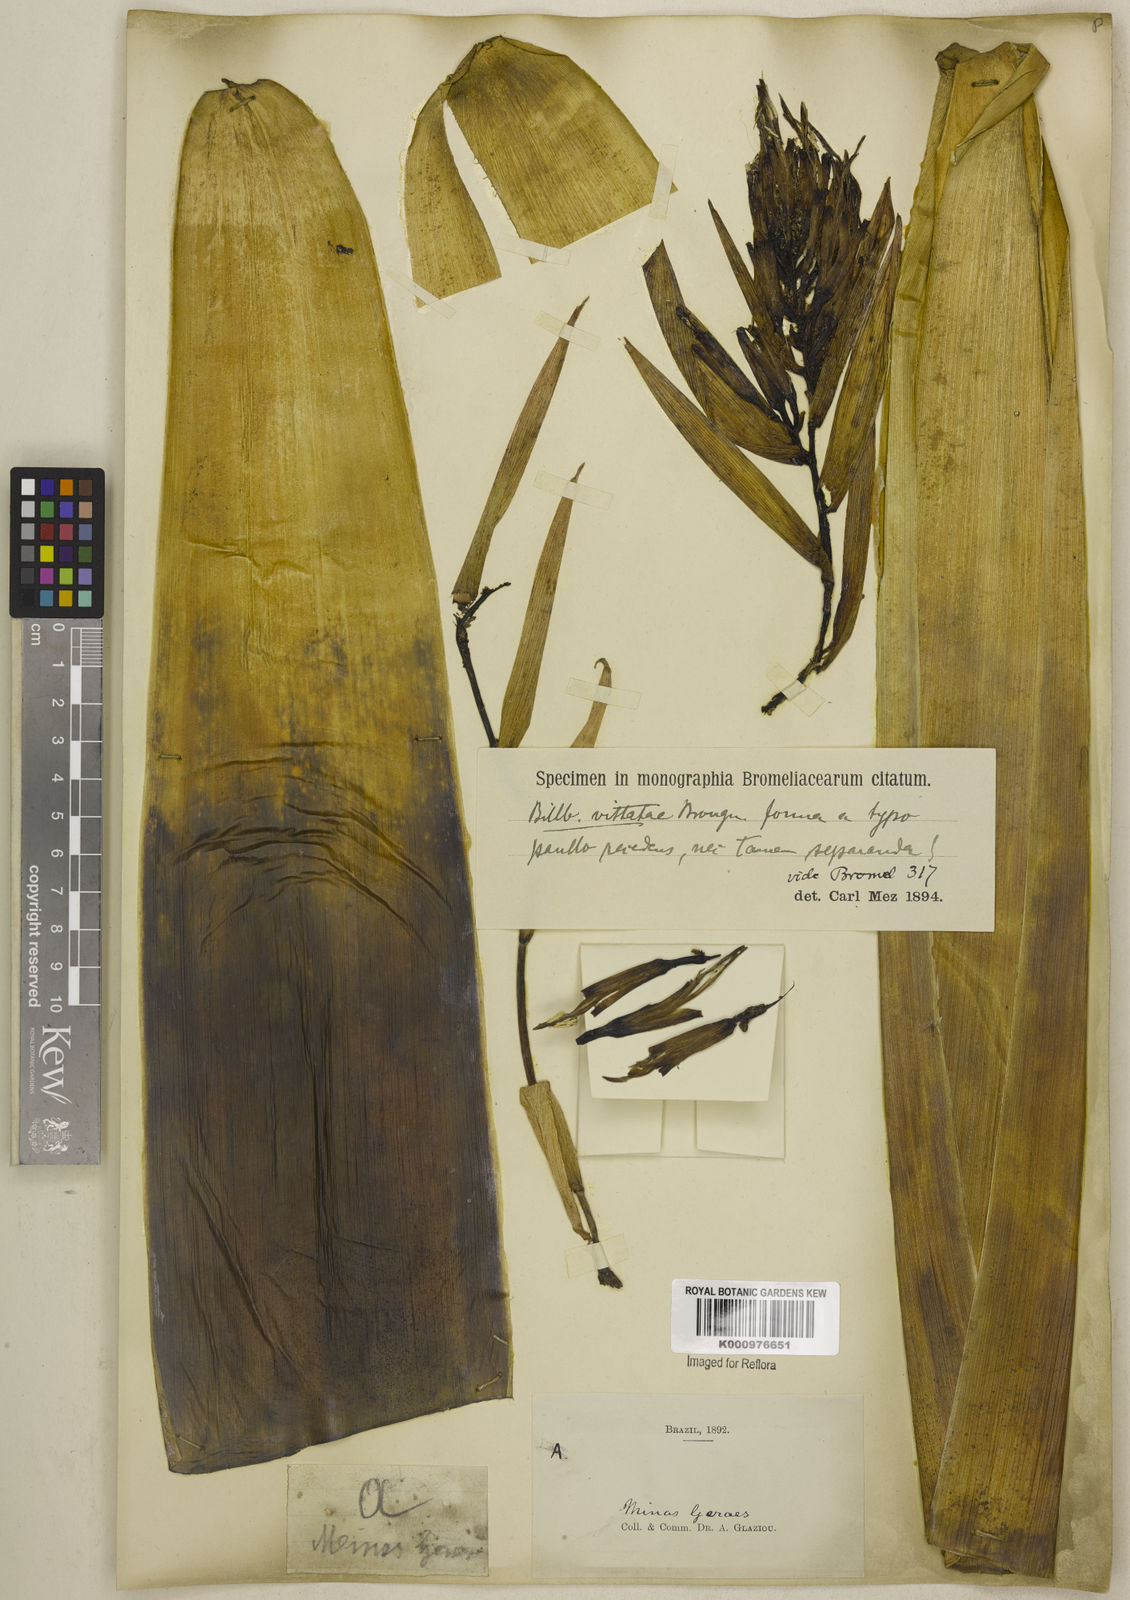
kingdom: Plantae
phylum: Tracheophyta
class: Liliopsida
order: Poales
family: Bromeliaceae
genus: Billbergia
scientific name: Billbergia vittata
